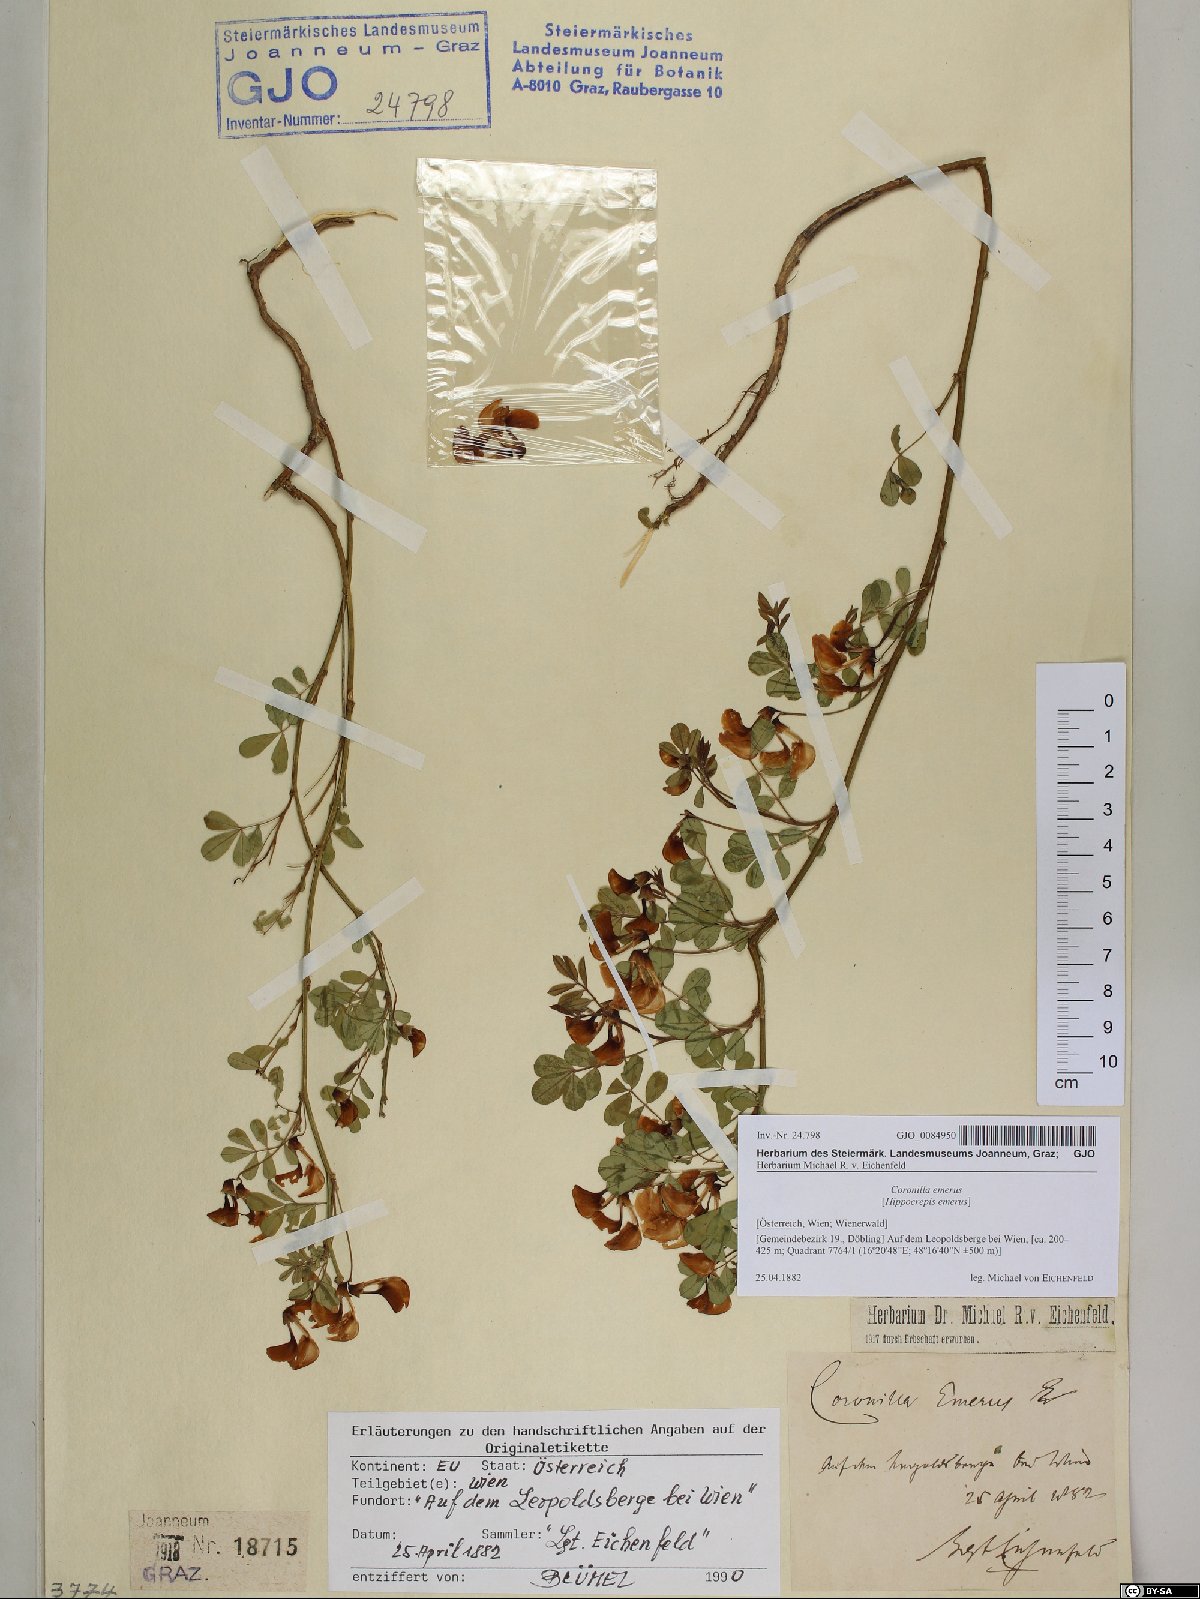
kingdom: Plantae
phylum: Tracheophyta
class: Magnoliopsida
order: Fabales
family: Fabaceae
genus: Hippocrepis
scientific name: Hippocrepis emerus
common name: Scorpion senna
